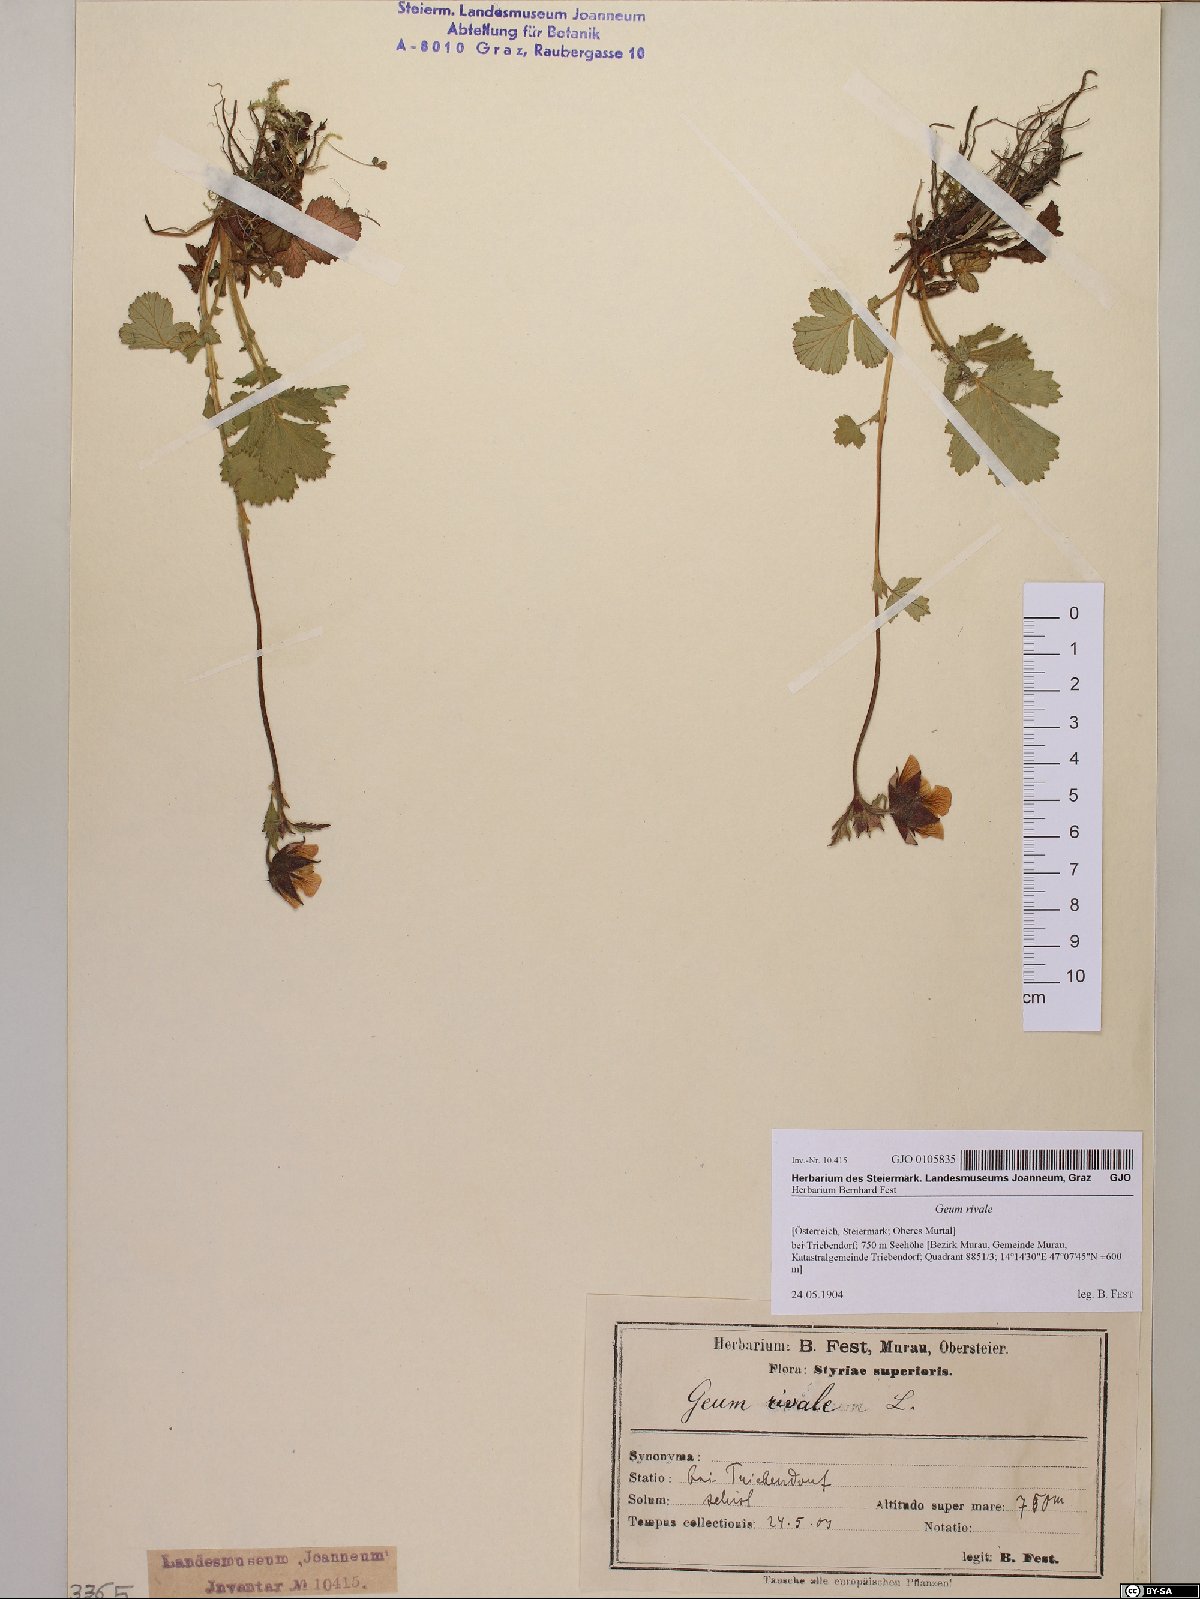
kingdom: Plantae
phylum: Tracheophyta
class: Magnoliopsida
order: Rosales
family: Rosaceae
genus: Geum
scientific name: Geum rivale
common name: Water avens
